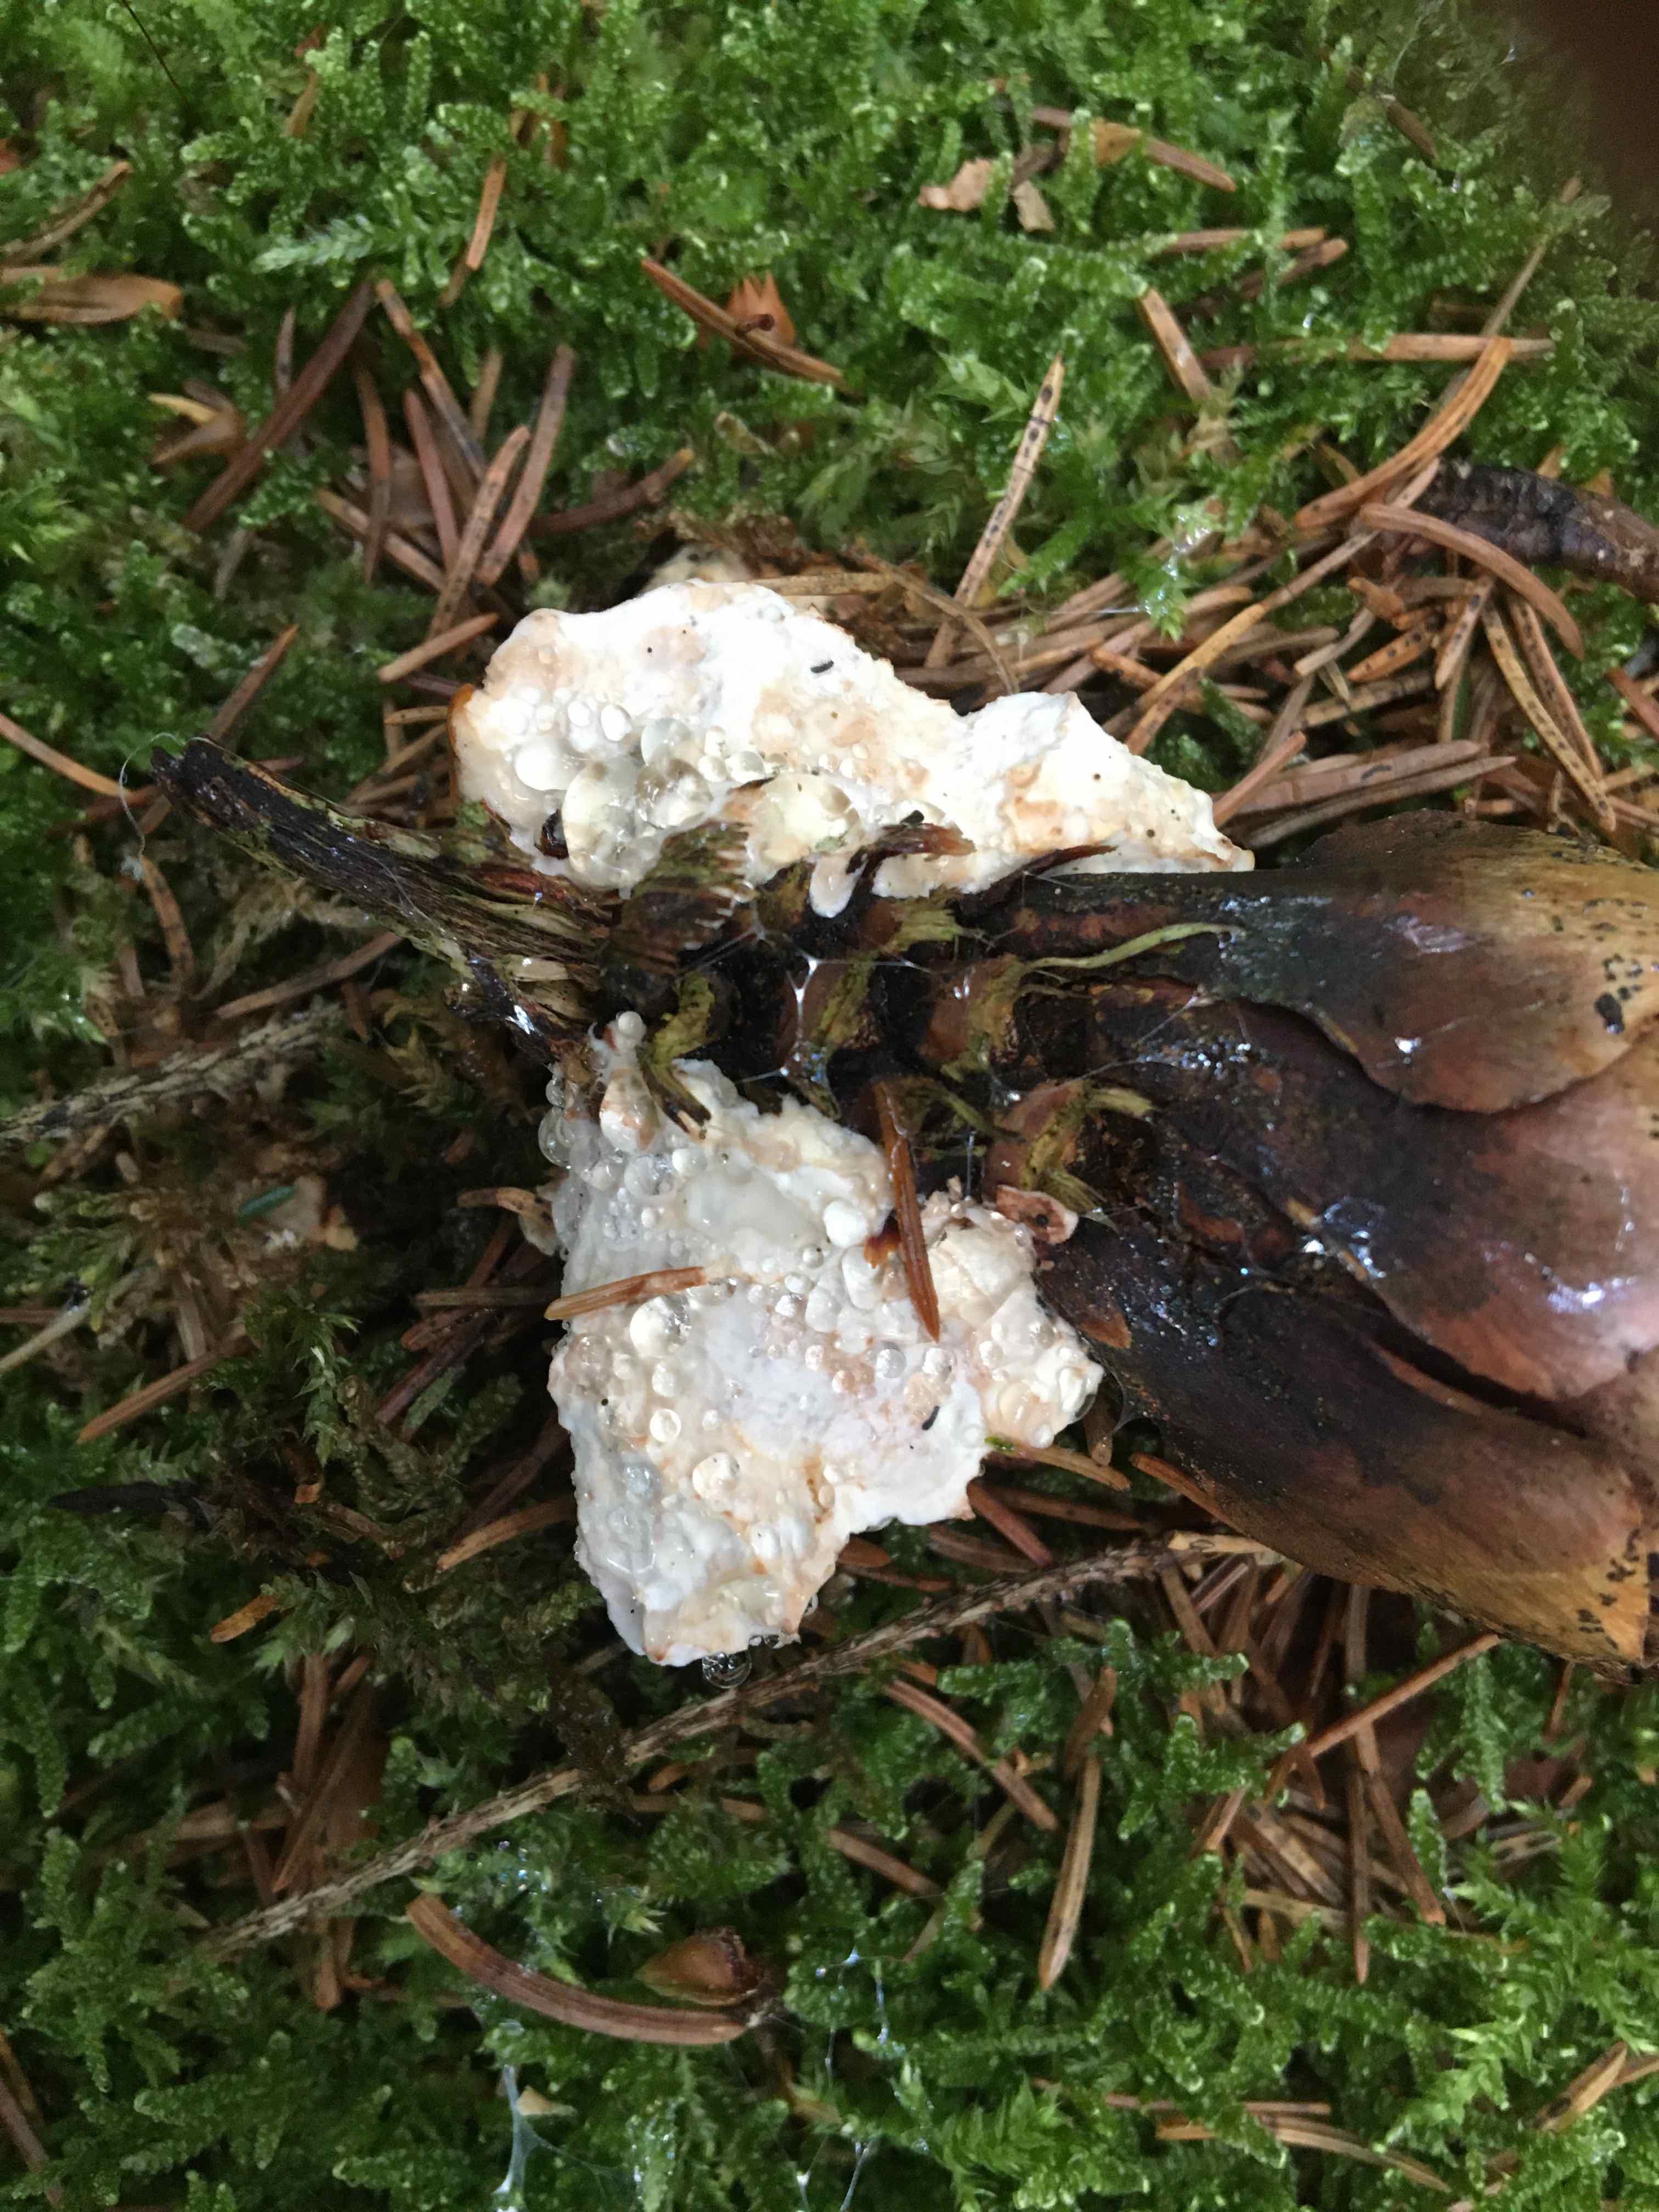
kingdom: Fungi
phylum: Basidiomycota
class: Agaricomycetes
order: Polyporales
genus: Calcipostia
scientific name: Calcipostia guttulata
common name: dråbe-kødporesvamp
